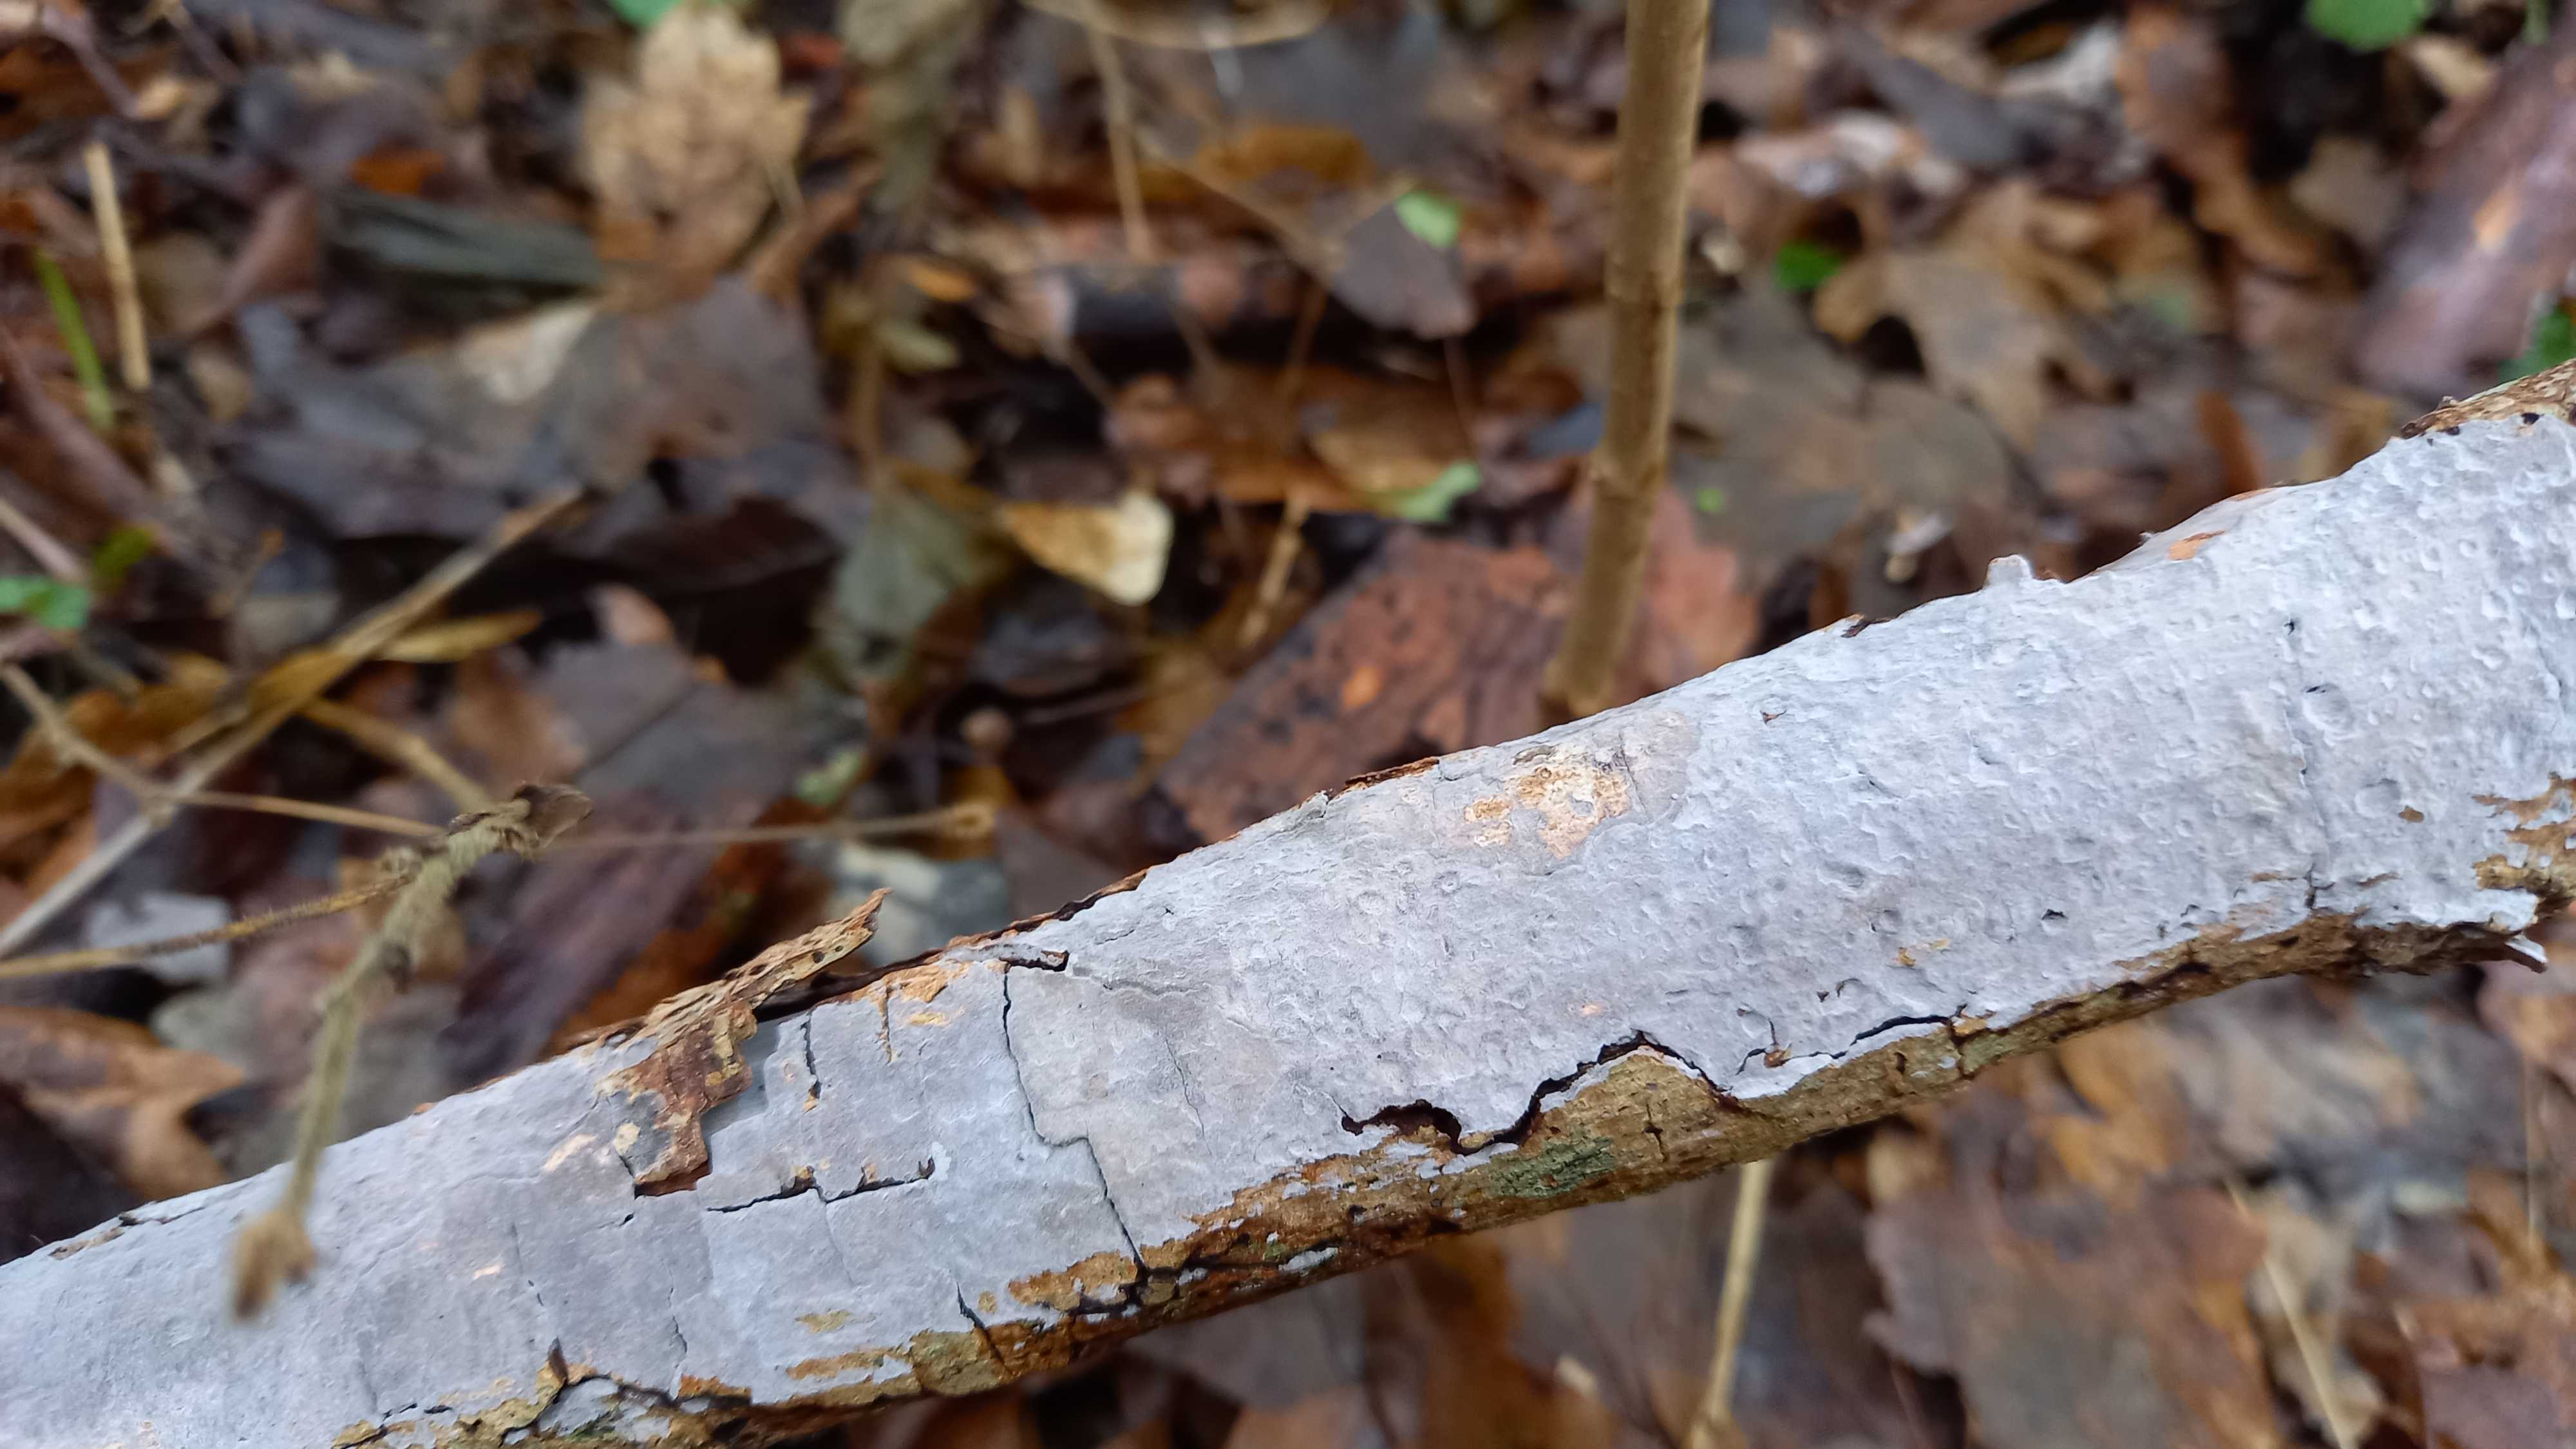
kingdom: Fungi
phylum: Basidiomycota
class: Agaricomycetes
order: Russulales
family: Peniophoraceae
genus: Peniophora
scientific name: Peniophora lycii
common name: grynet voksskind
